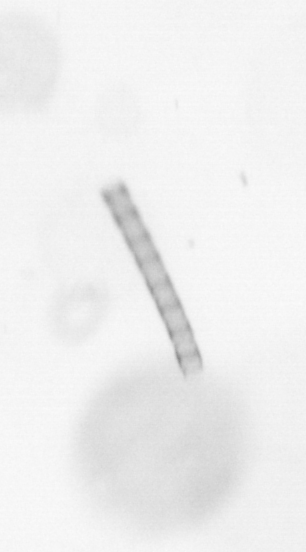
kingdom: Chromista
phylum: Ochrophyta
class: Bacillariophyceae
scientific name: Bacillariophyceae
